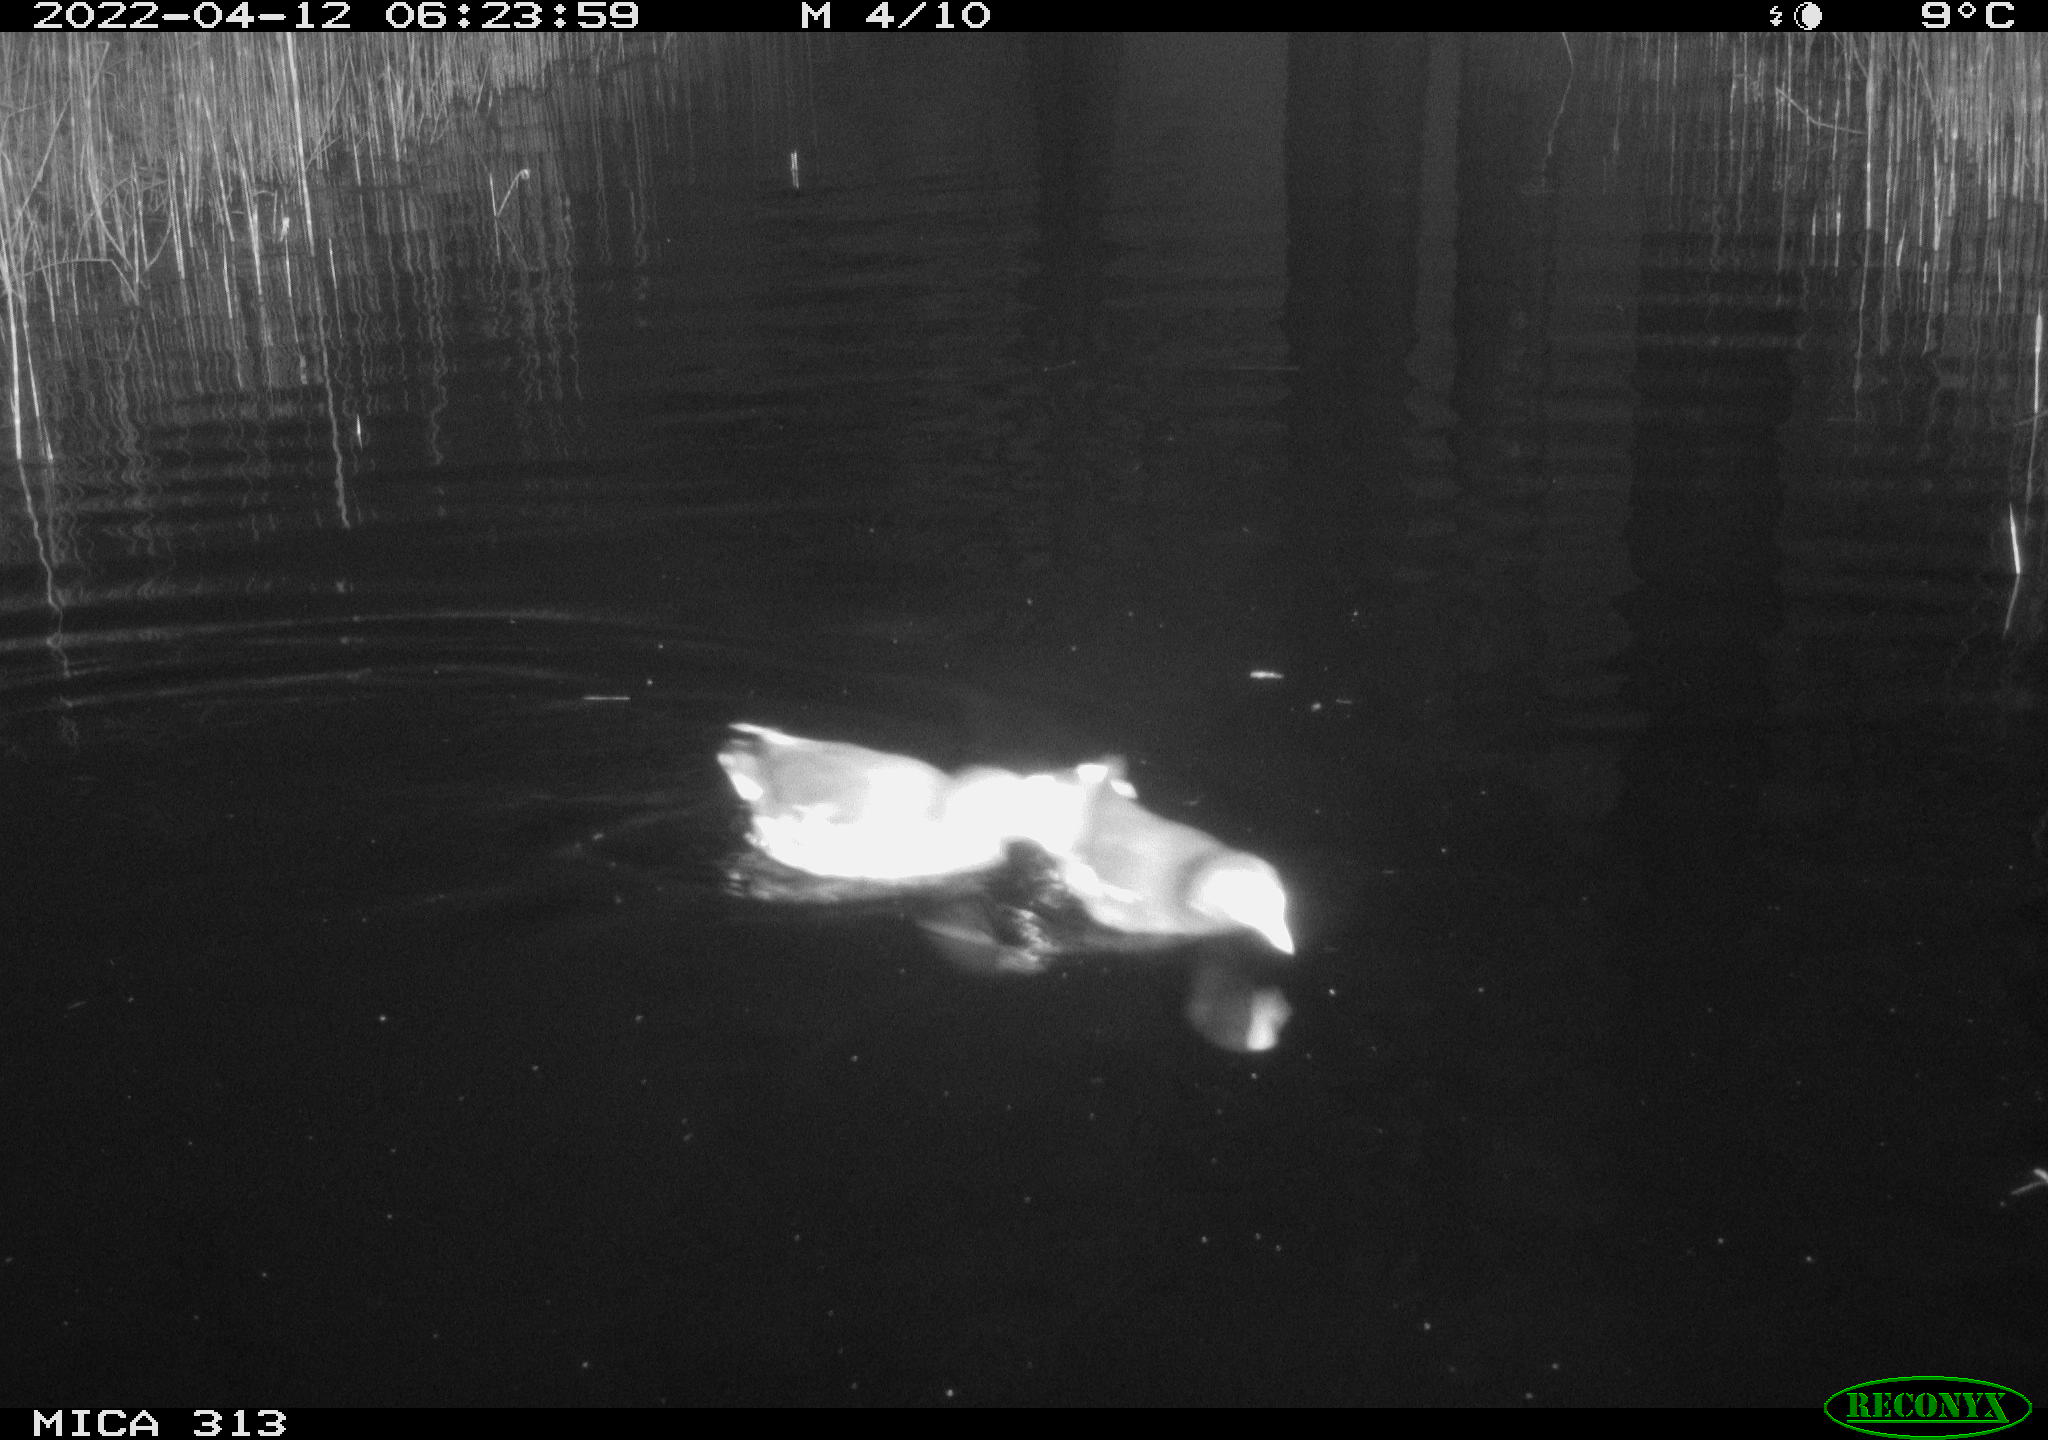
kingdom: Animalia
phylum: Chordata
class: Aves
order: Gruiformes
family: Rallidae
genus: Gallinula
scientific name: Gallinula chloropus
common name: Common moorhen
